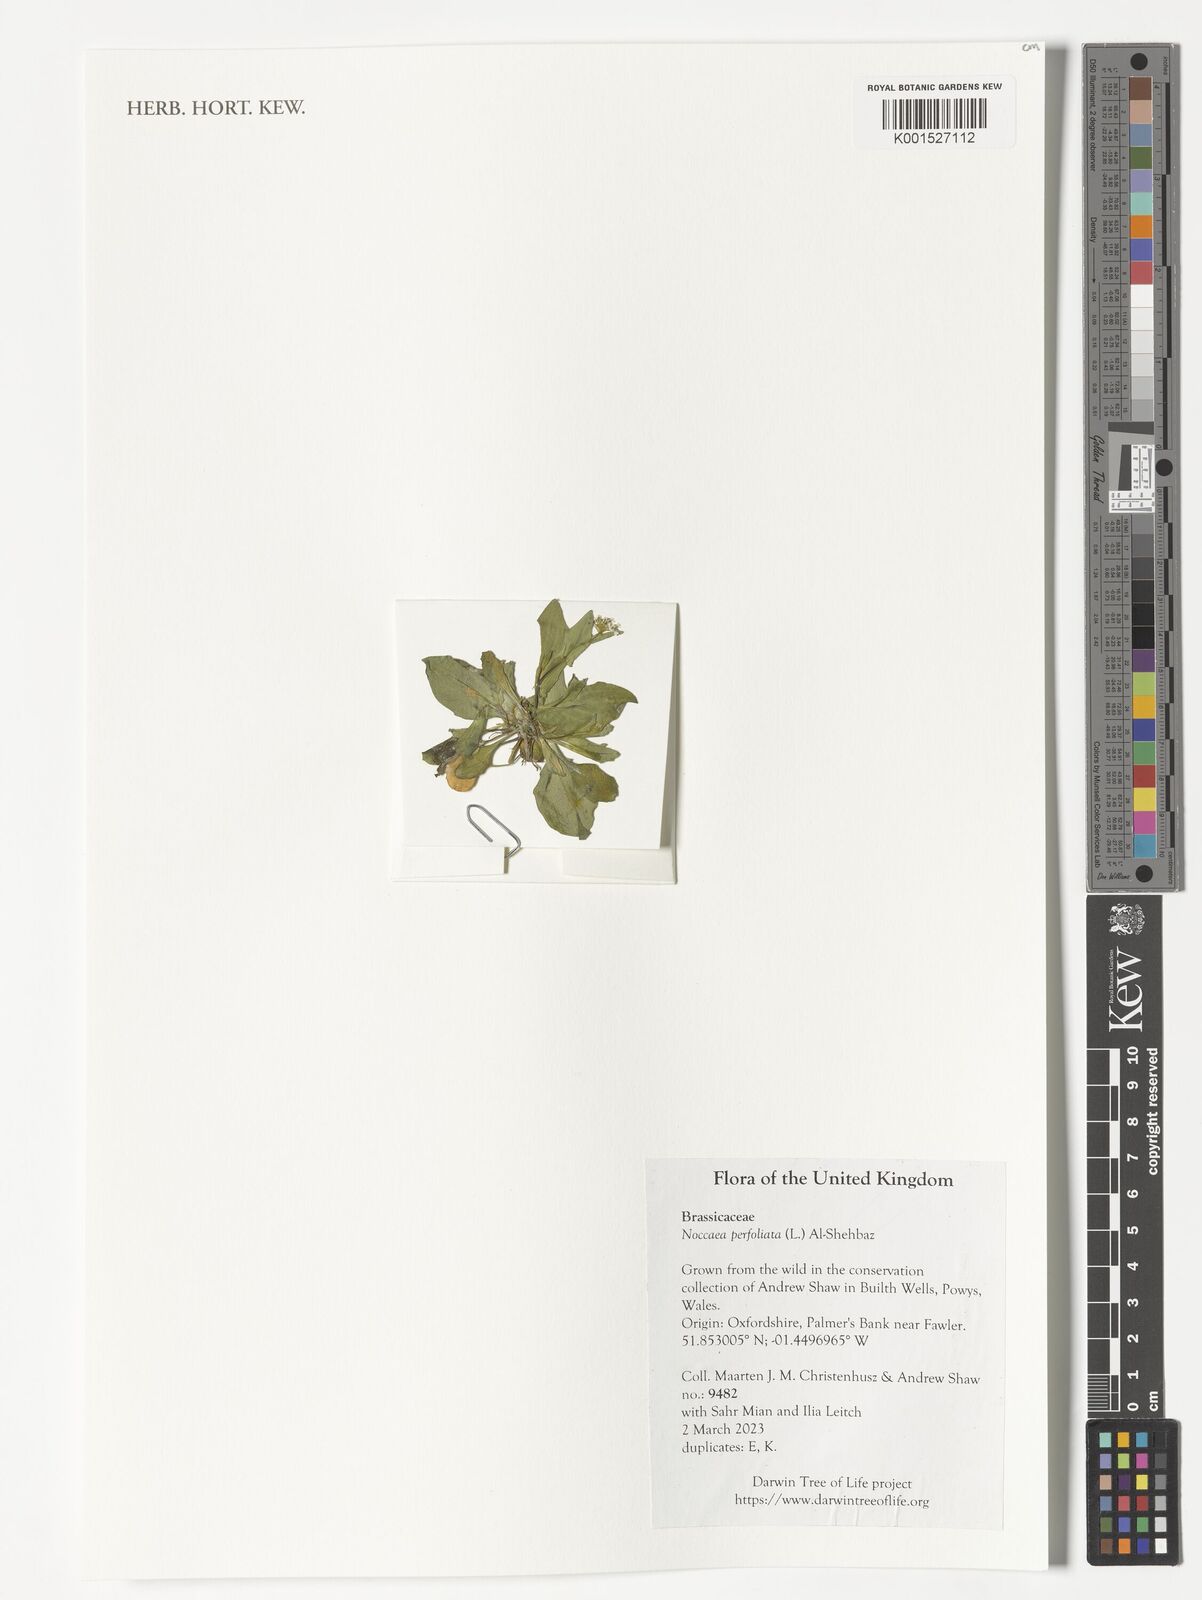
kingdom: Plantae
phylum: Tracheophyta
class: Magnoliopsida
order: Brassicales
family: Brassicaceae
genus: Noccaea
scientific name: Noccaea perfoliata
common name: Perfoliate pennycress
